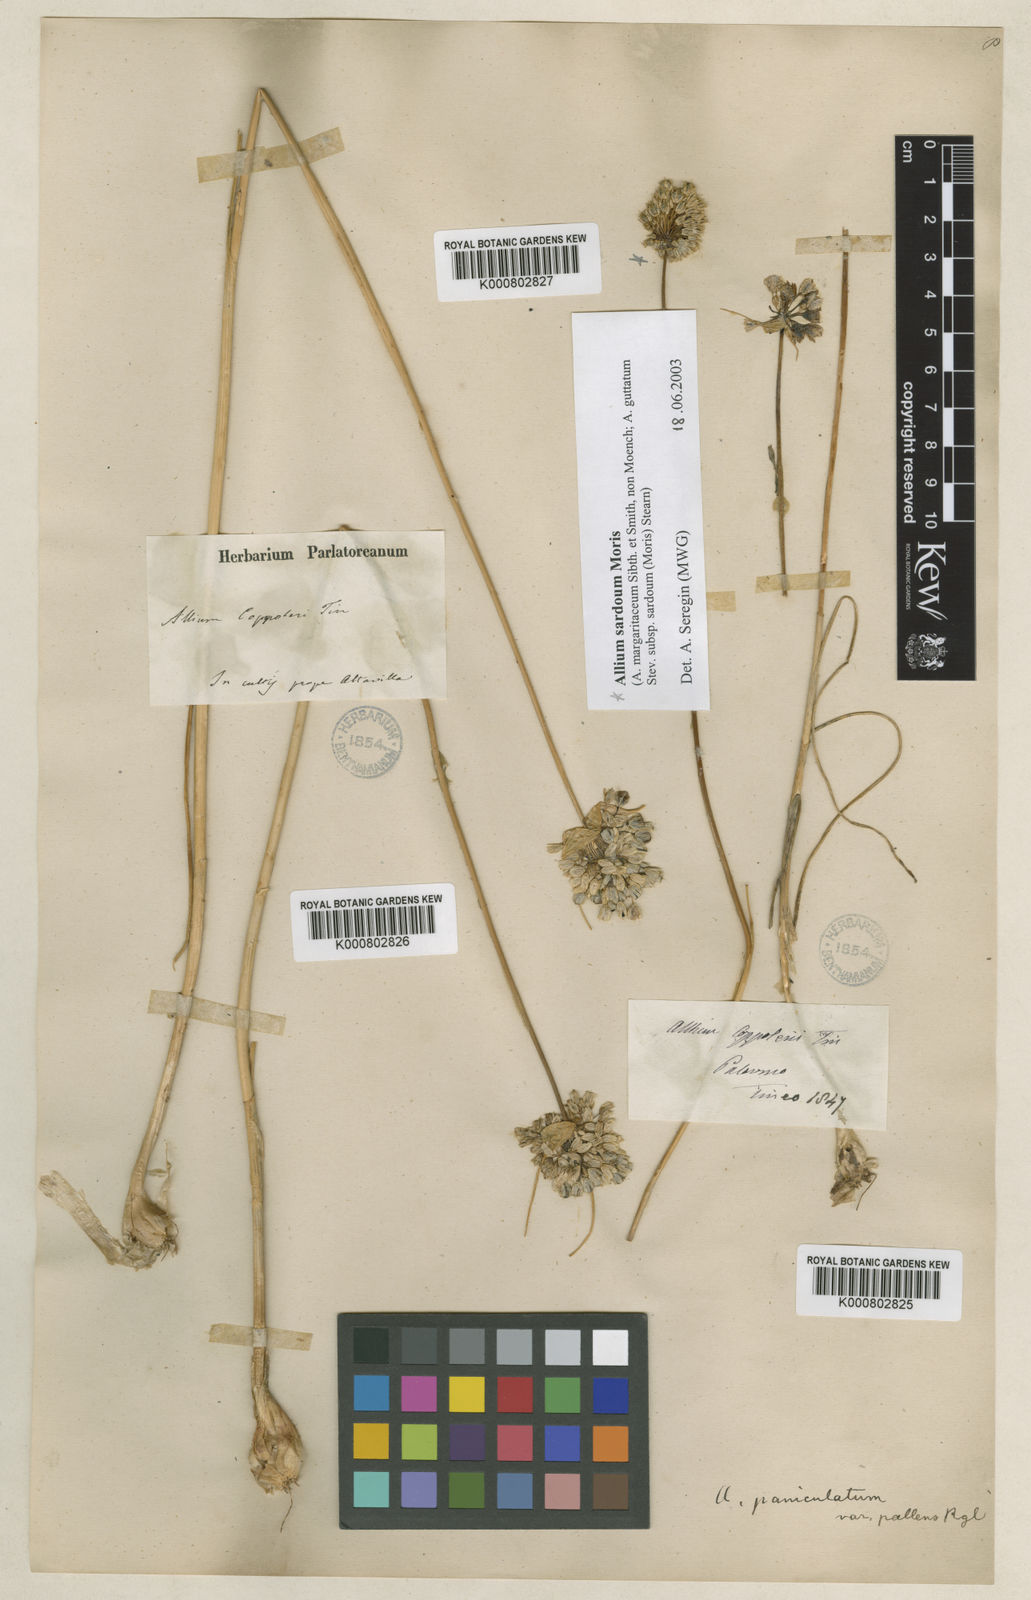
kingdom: Plantae
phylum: Tracheophyta
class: Liliopsida
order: Asparagales
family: Amaryllidaceae
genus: Allium
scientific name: Allium pallens
